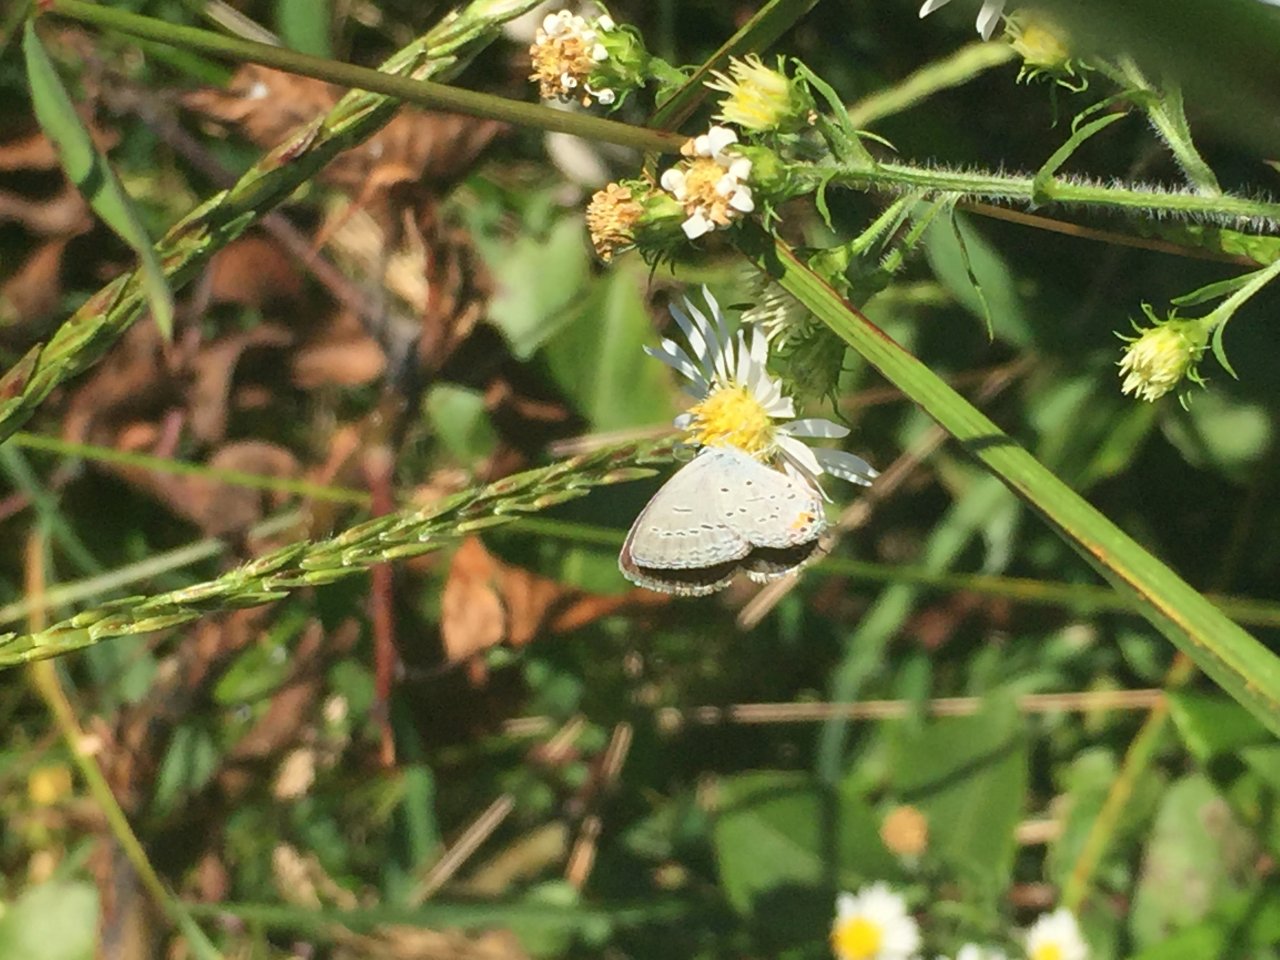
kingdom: Animalia
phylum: Arthropoda
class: Insecta
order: Lepidoptera
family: Lycaenidae
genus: Elkalyce
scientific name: Elkalyce comyntas
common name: Eastern Tailed-Blue
